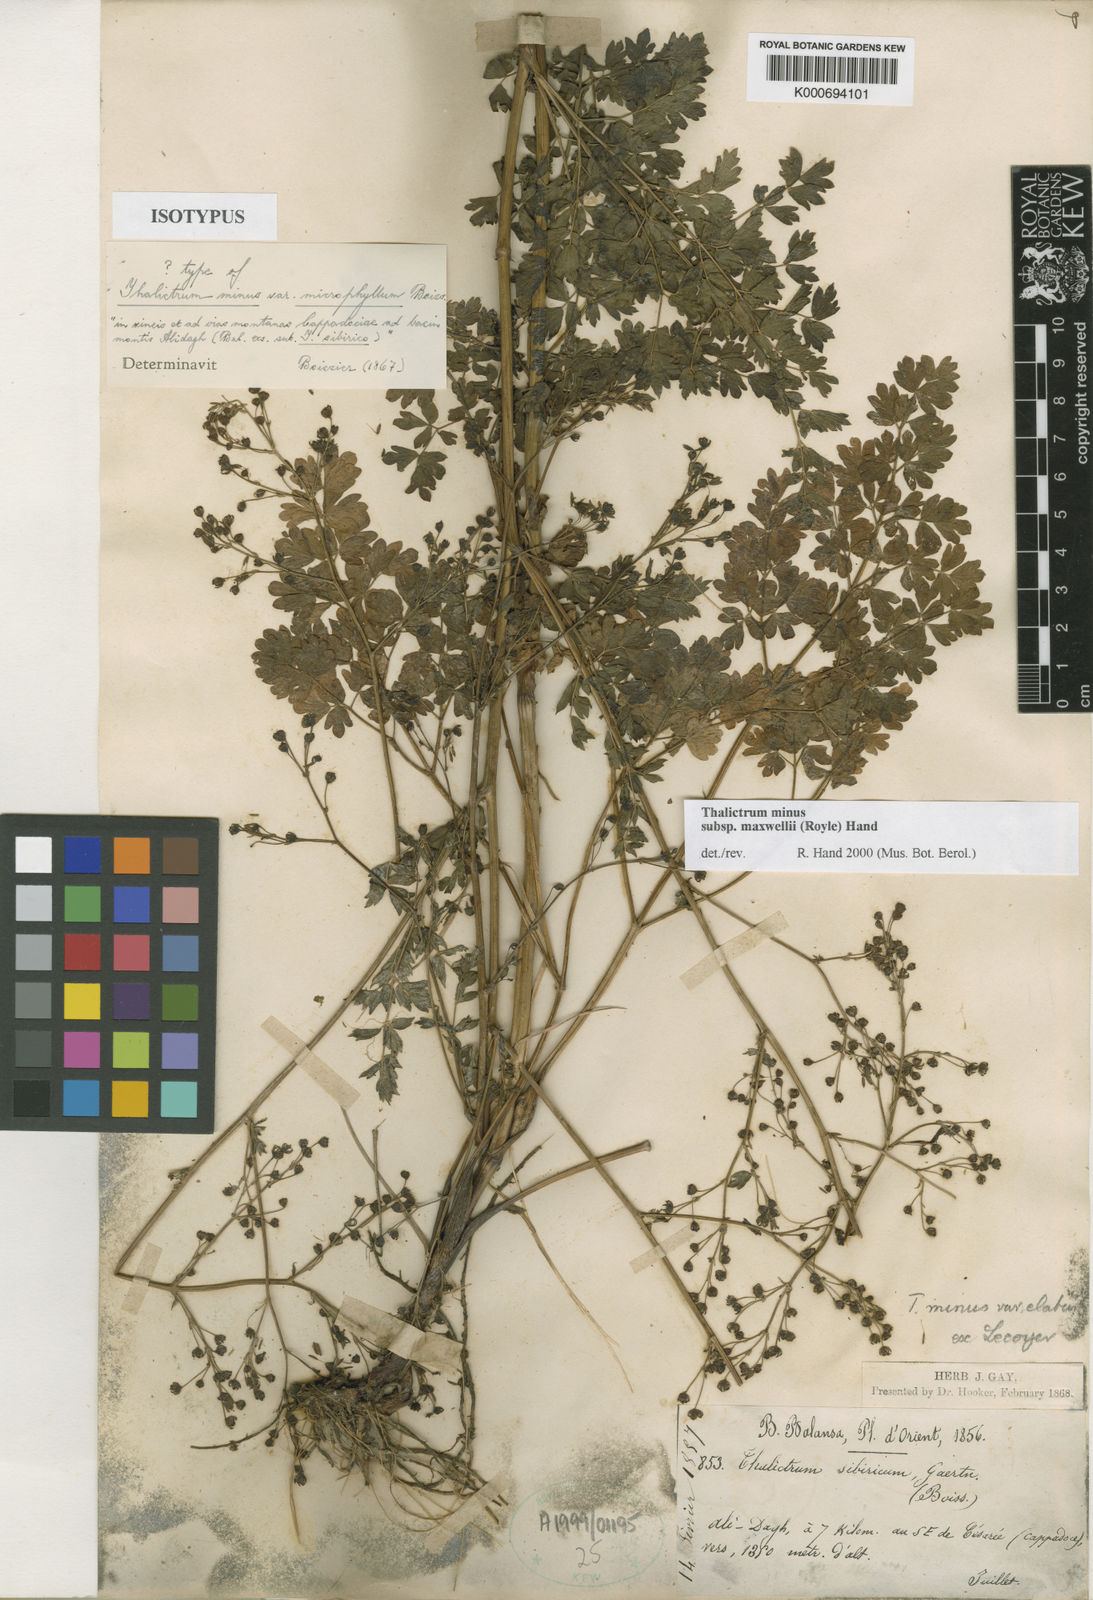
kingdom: Plantae
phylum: Tracheophyta
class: Magnoliopsida
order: Ranunculales
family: Ranunculaceae
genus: Thalictrum
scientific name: Thalictrum minus
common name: Lesser meadow-rue
